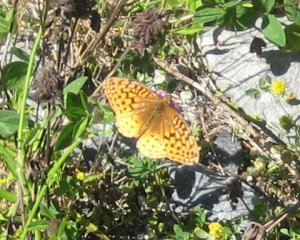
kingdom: Animalia
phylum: Arthropoda
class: Insecta
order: Lepidoptera
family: Nymphalidae
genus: Speyeria
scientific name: Speyeria cybele
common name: Great Spangled Fritillary
